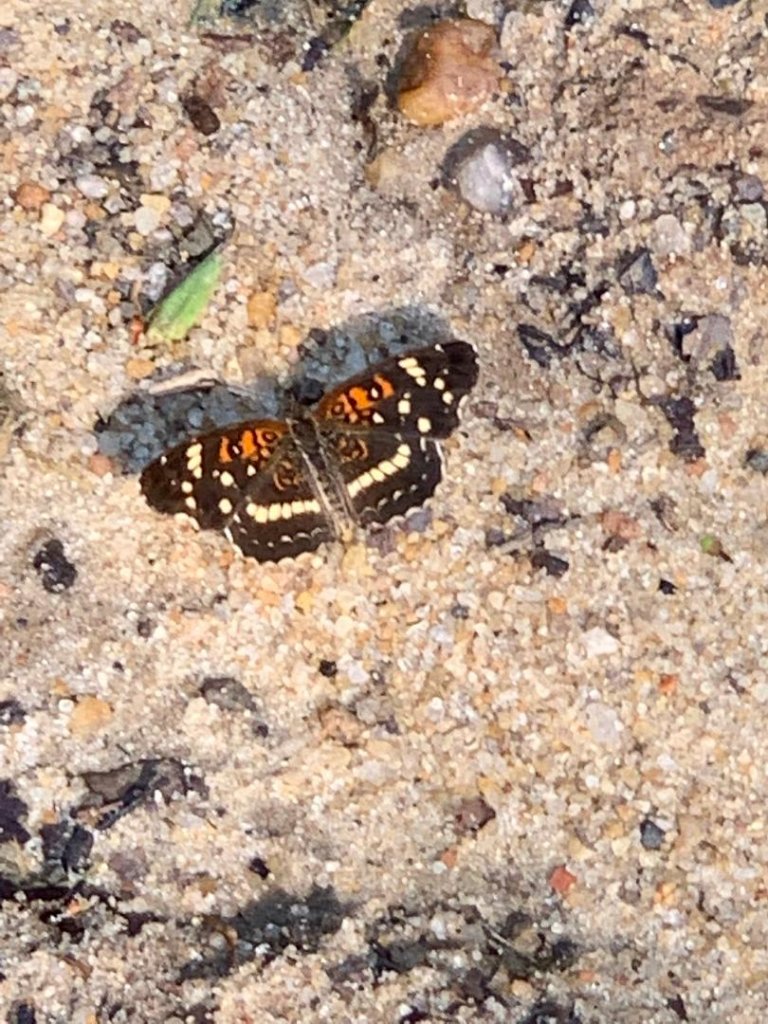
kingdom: Animalia
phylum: Arthropoda
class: Insecta
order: Lepidoptera
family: Nymphalidae
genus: Anthanassa
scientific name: Anthanassa texana
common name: Texan Crescent
